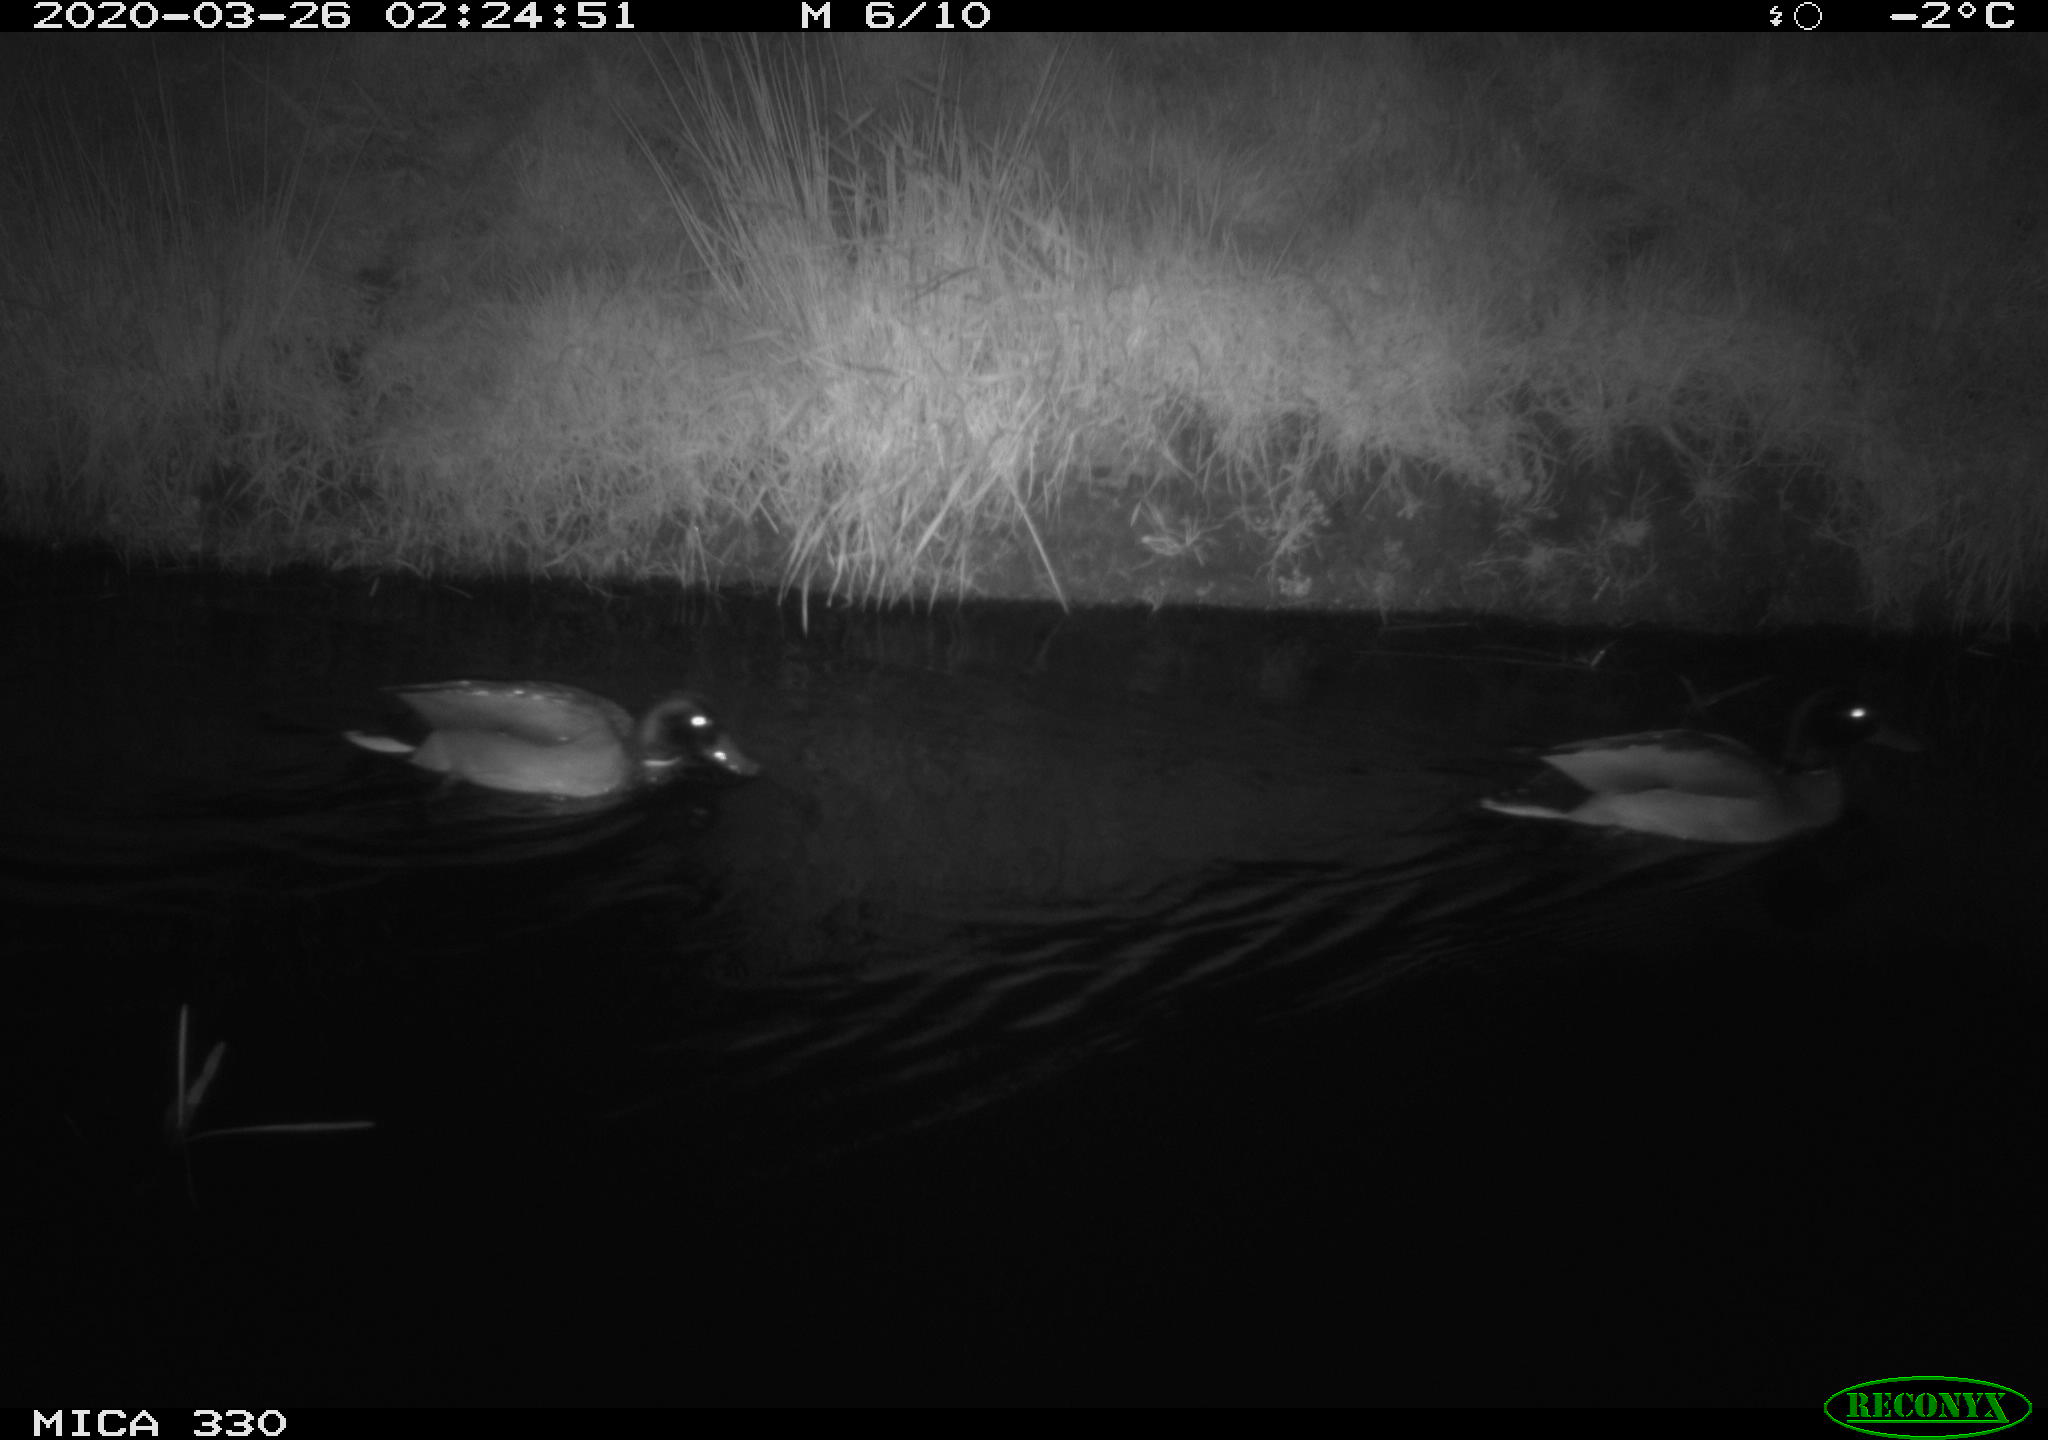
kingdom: Animalia
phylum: Chordata
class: Aves
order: Anseriformes
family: Anatidae
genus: Anas
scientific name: Anas platyrhynchos
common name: Mallard
